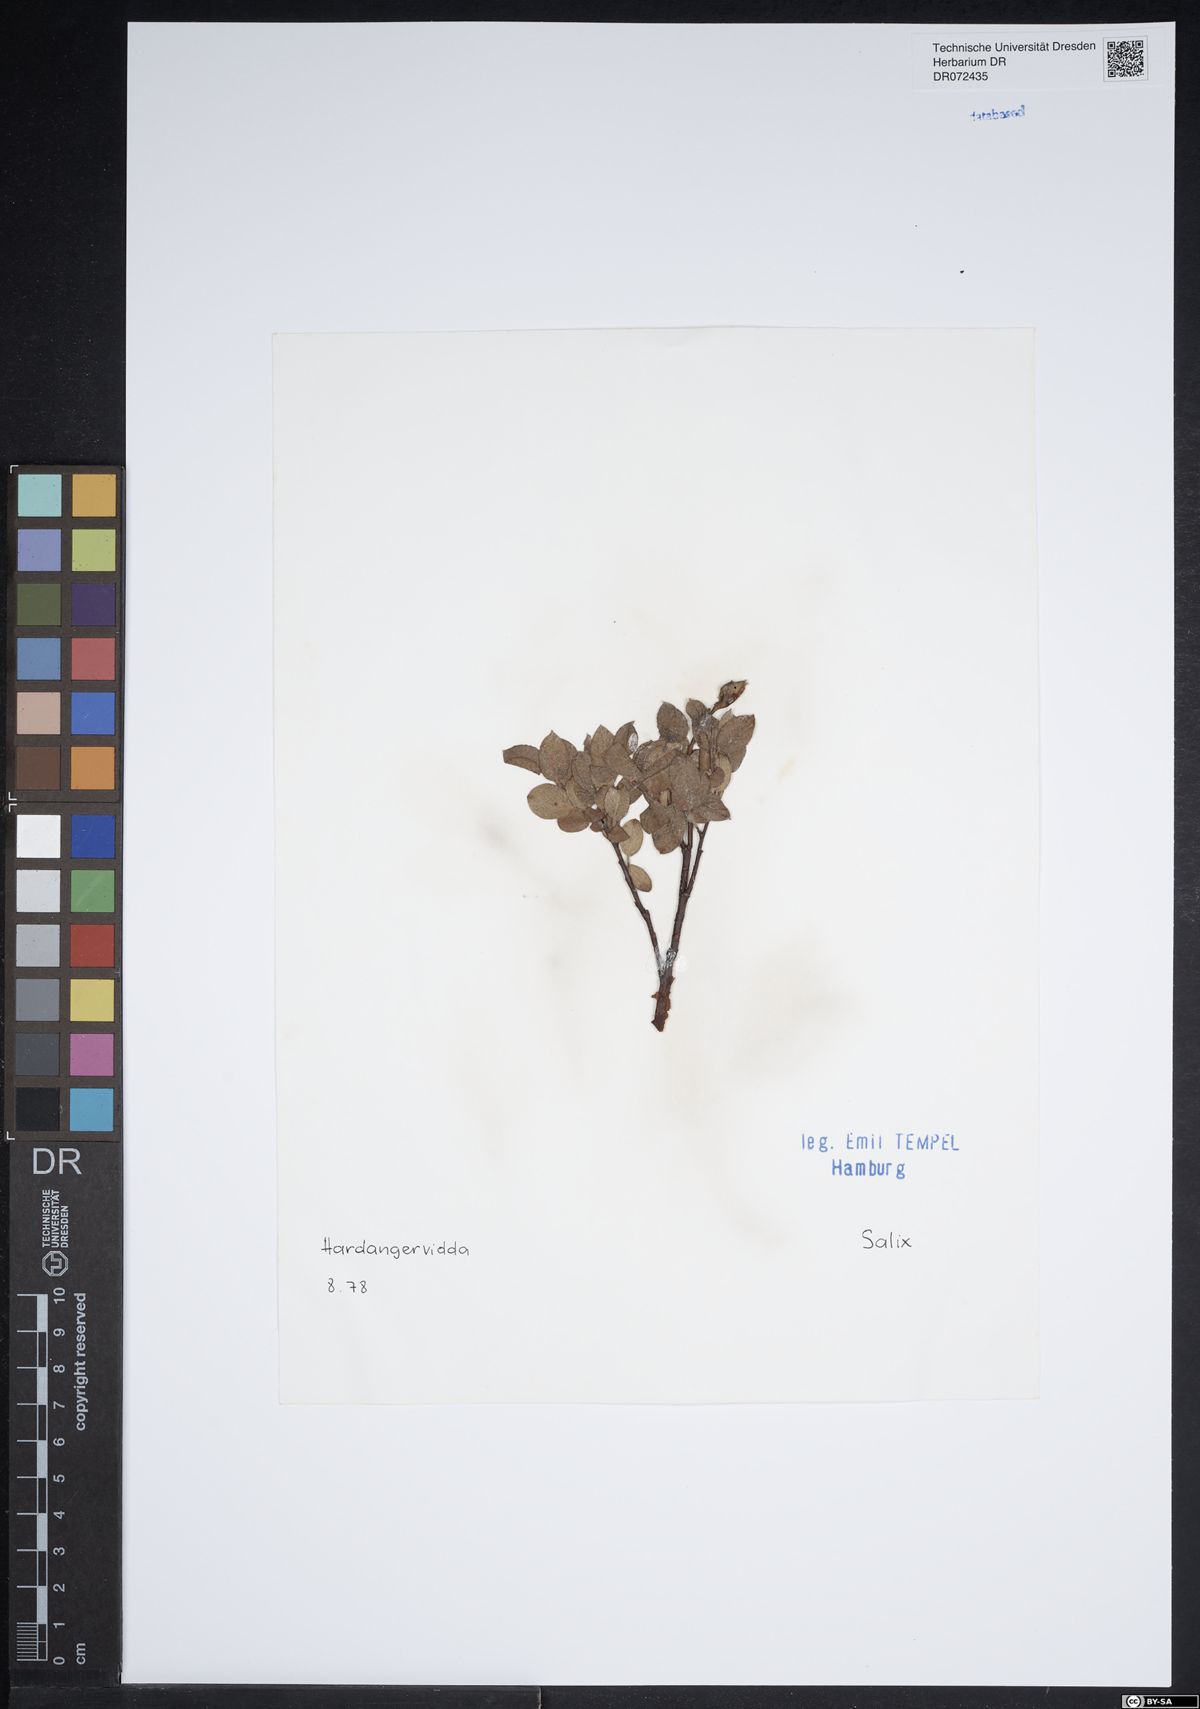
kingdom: Plantae
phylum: Tracheophyta
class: Magnoliopsida
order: Malpighiales
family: Salicaceae
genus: Salix
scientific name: Salix
